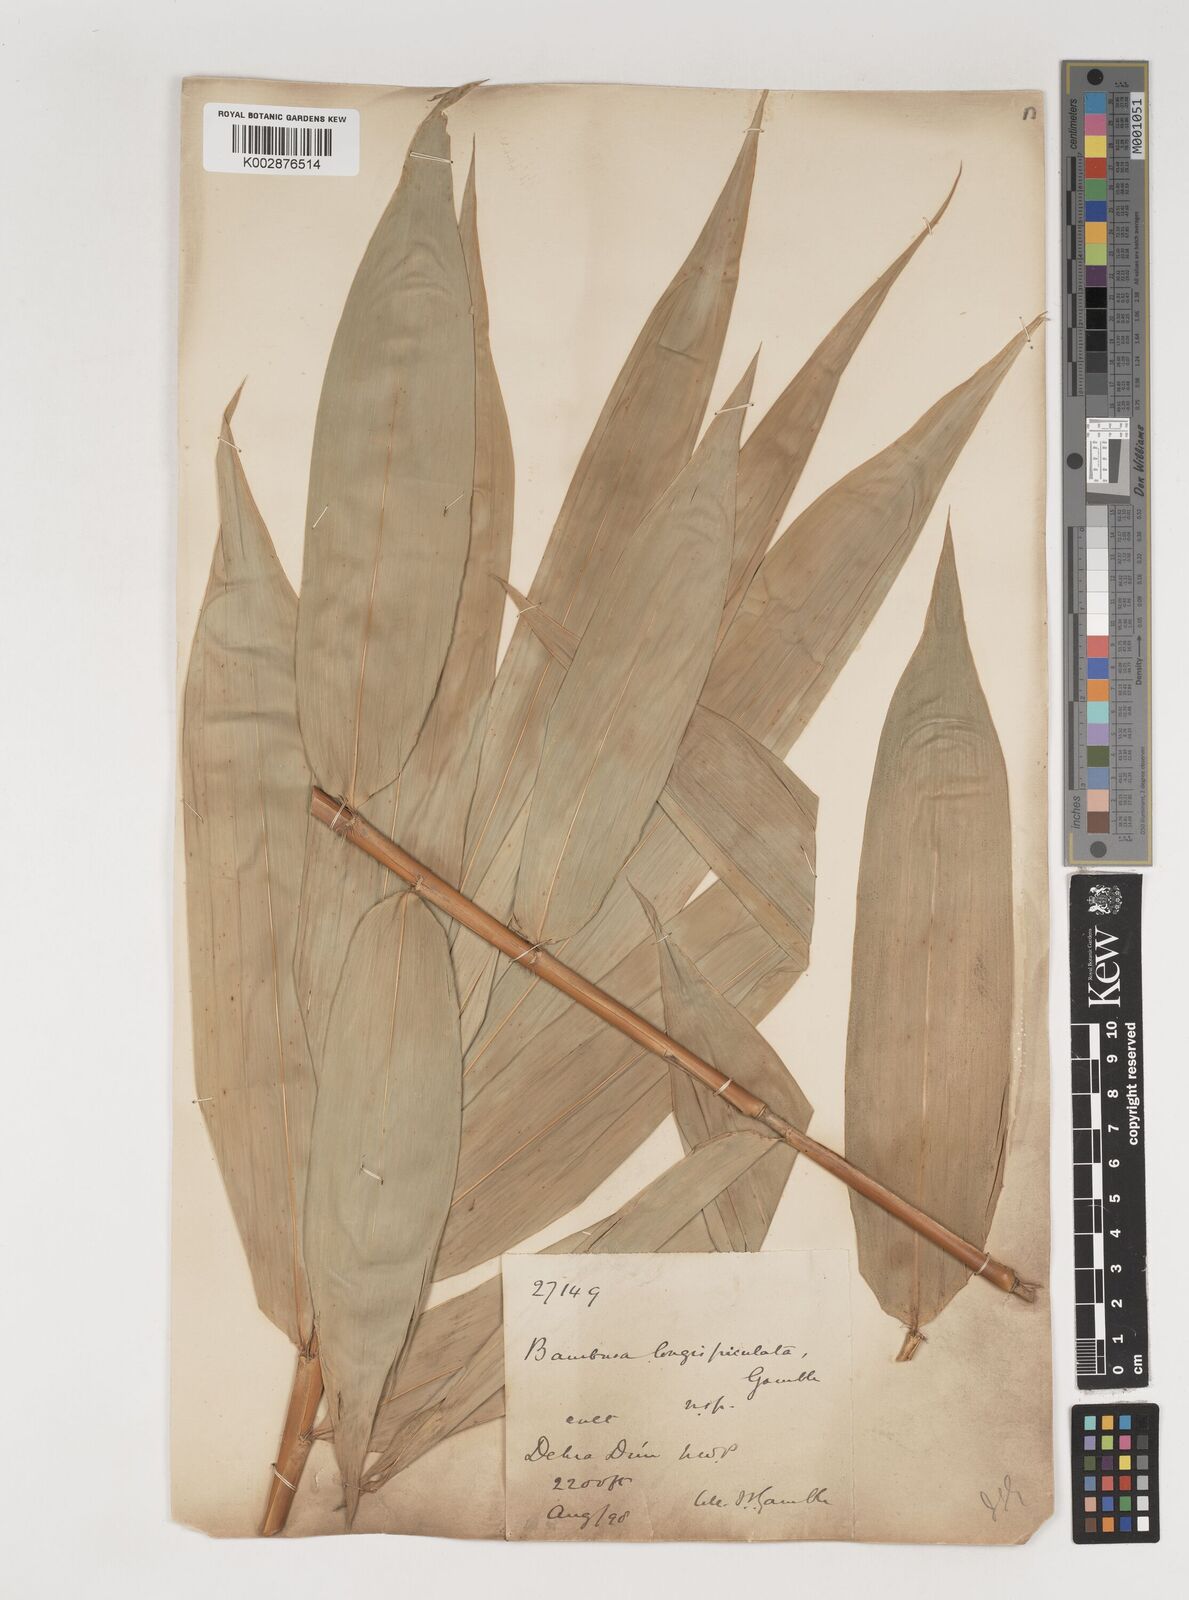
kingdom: Plantae
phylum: Tracheophyta
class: Liliopsida
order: Poales
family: Poaceae
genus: Bambusa
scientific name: Bambusa longispiculata
